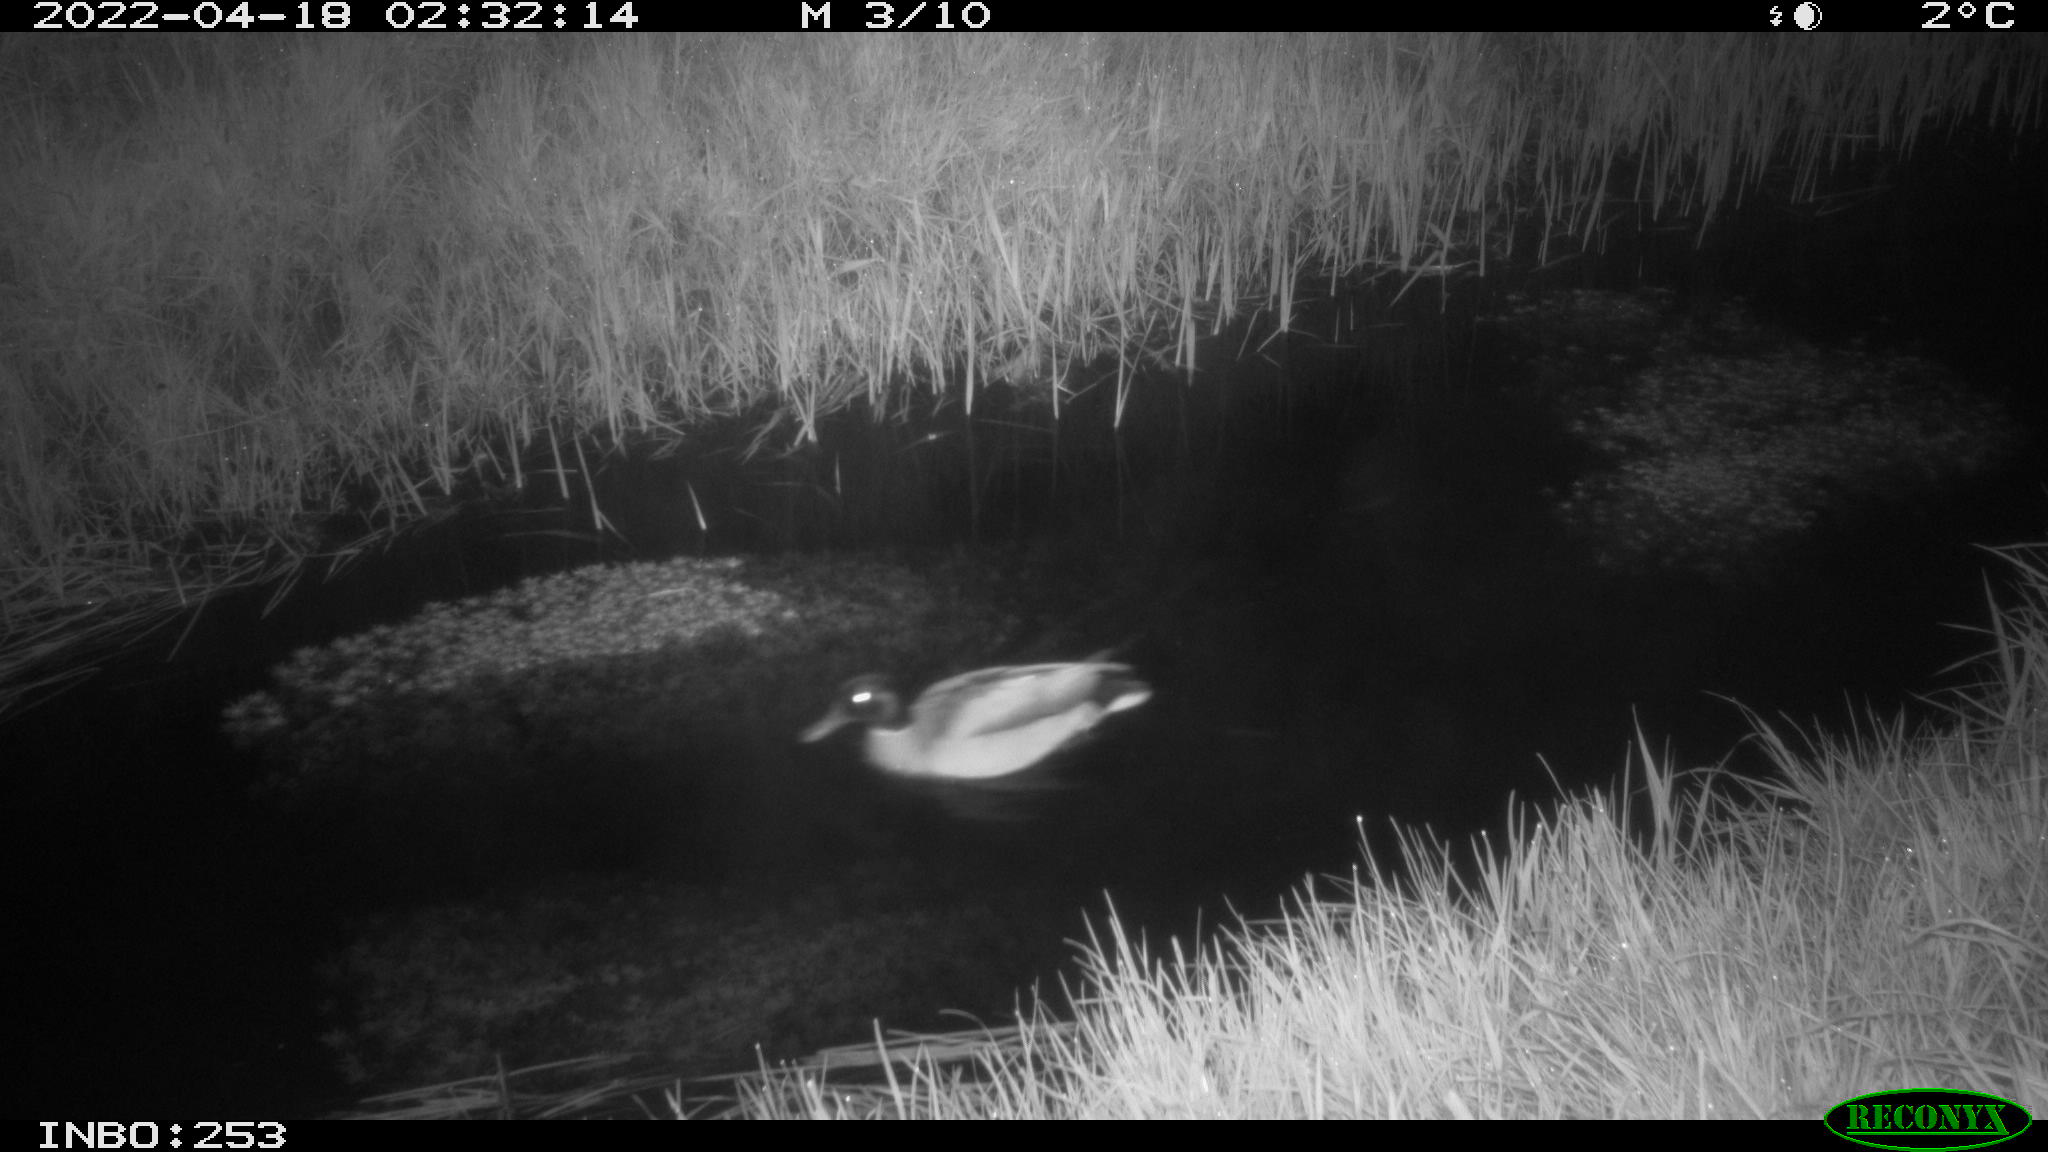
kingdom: Animalia
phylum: Chordata
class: Aves
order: Anseriformes
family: Anatidae
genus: Anas
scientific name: Anas platyrhynchos
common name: Mallard
